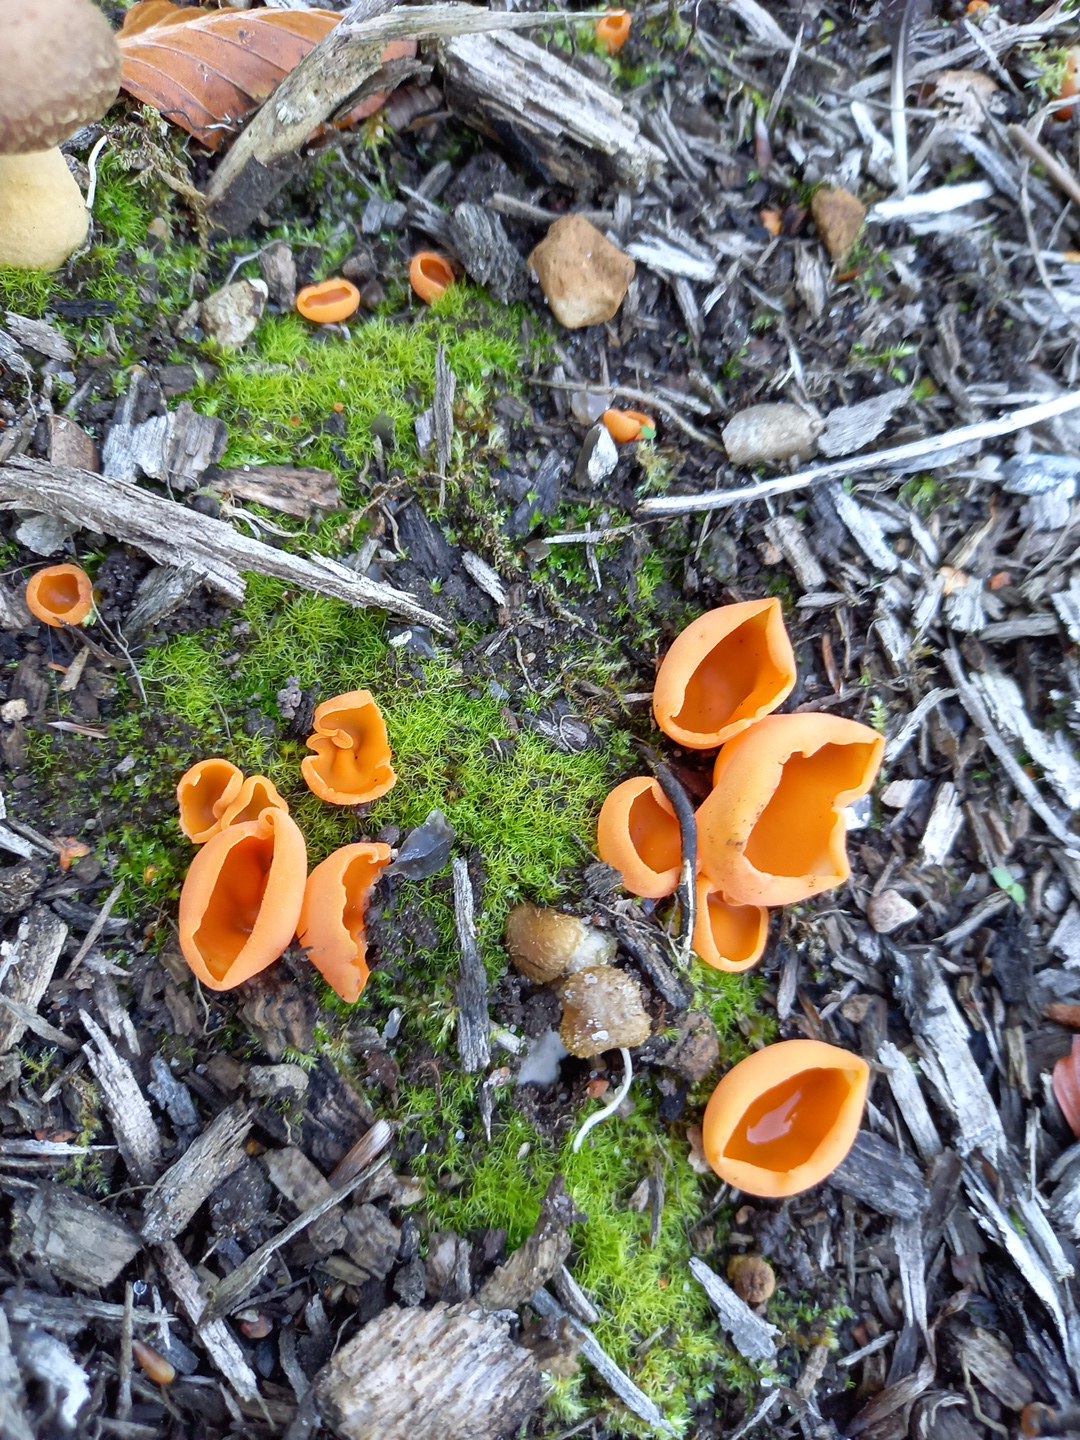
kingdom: Fungi
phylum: Ascomycota
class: Pezizomycetes
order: Pezizales
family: Pyronemataceae
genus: Aleuria
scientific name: Aleuria aurantia
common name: almindelig orangebæger
